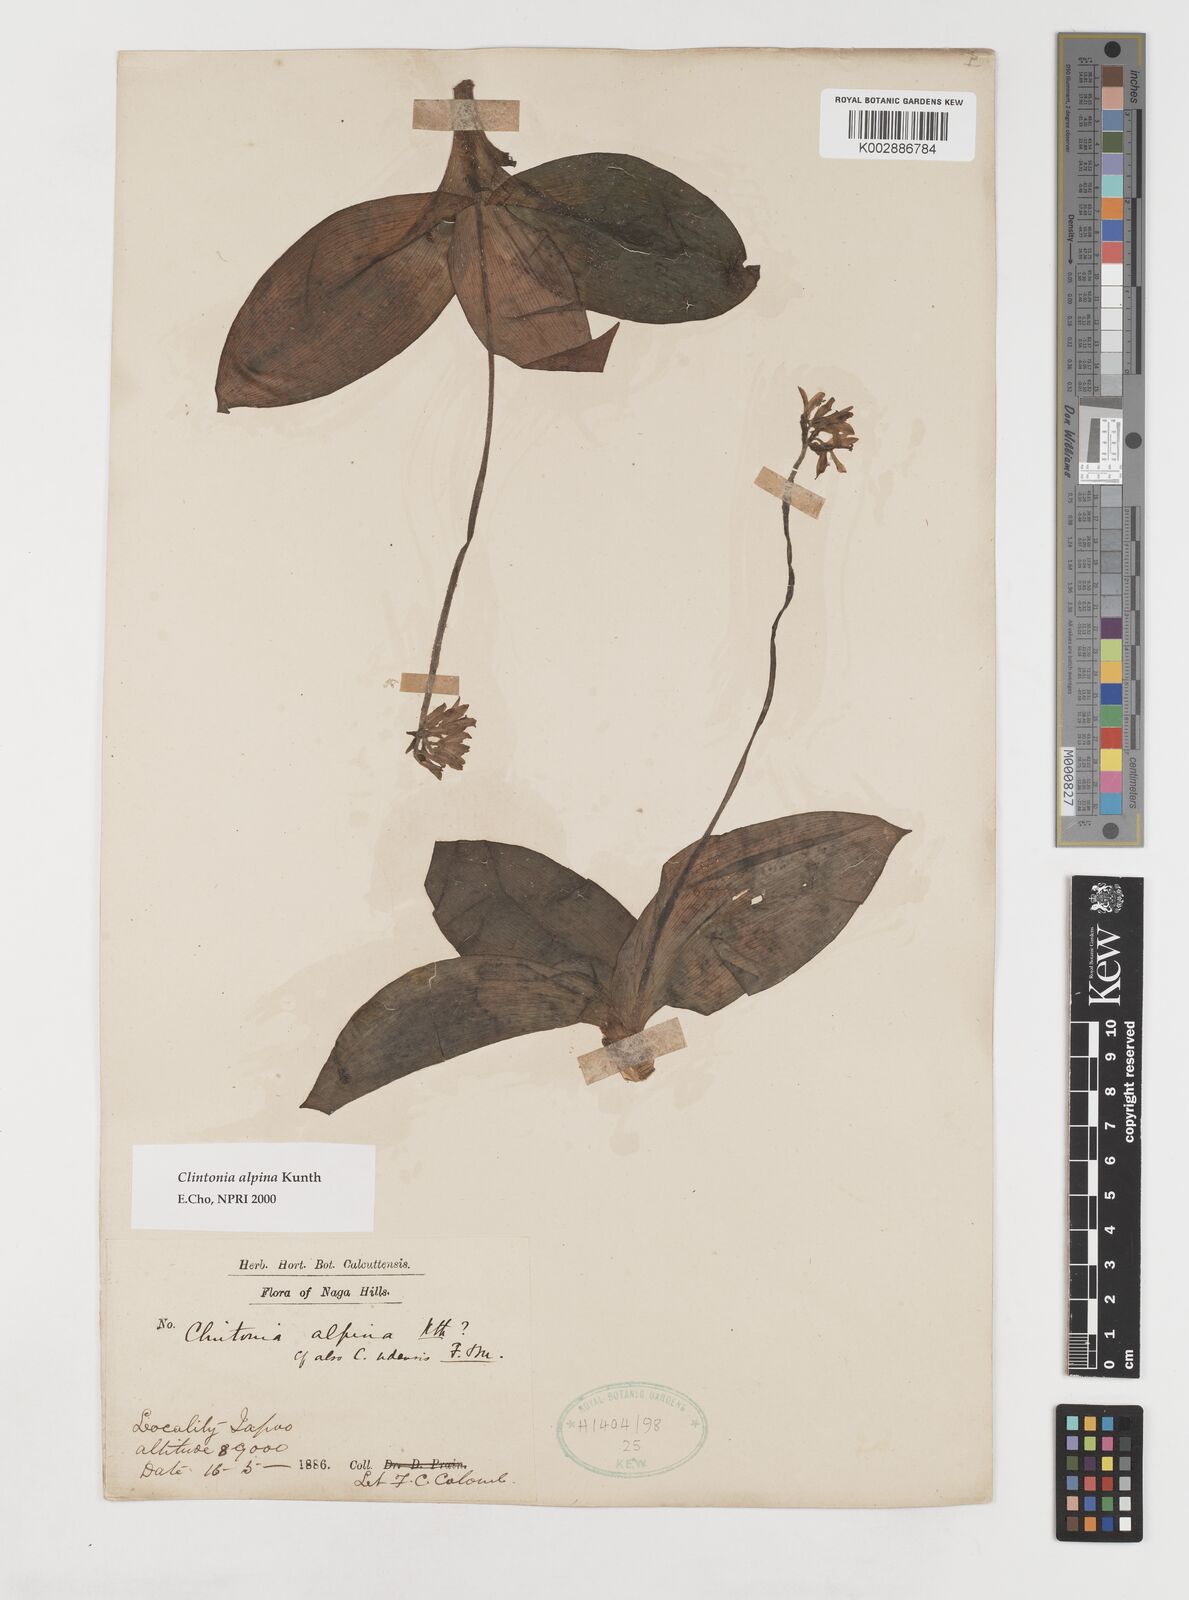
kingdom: Plantae
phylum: Tracheophyta
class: Liliopsida
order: Liliales
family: Liliaceae
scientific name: Liliaceae
